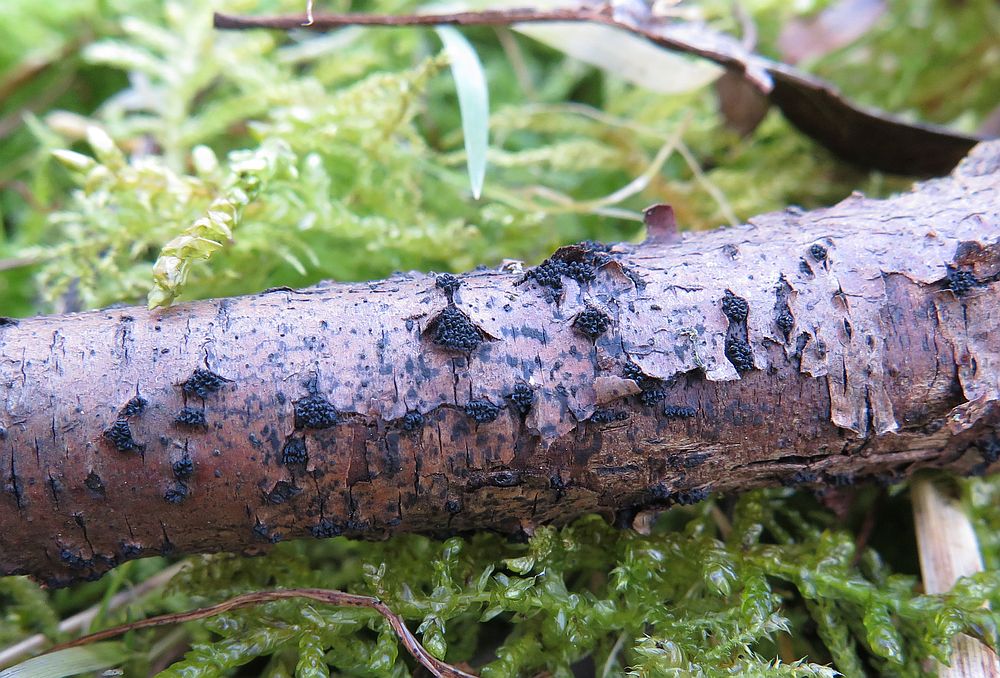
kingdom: Fungi
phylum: Ascomycota
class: Sordariomycetes
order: Xylariales
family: Diatrypaceae
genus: Eutypella
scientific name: Eutypella prunastri
